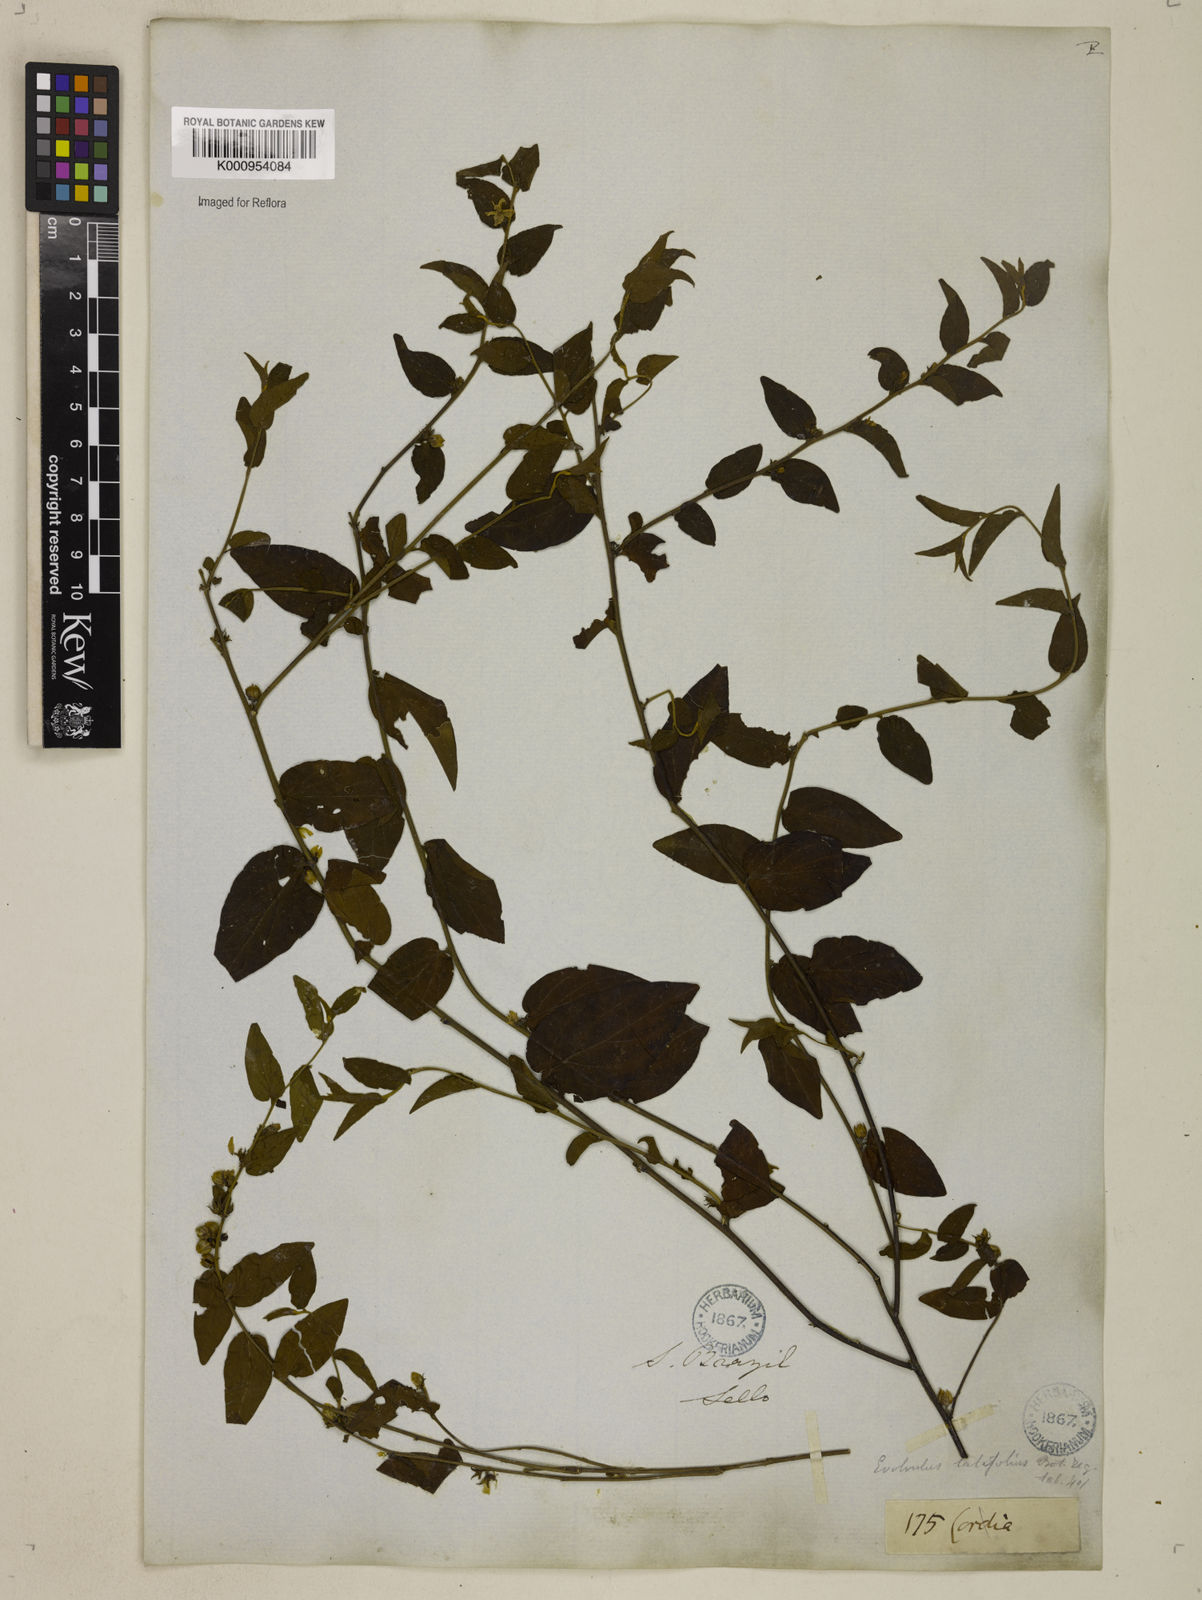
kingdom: Plantae
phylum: Tracheophyta
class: Magnoliopsida
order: Solanales
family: Convolvulaceae
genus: Evolvulus
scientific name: Evolvulus latifolius
